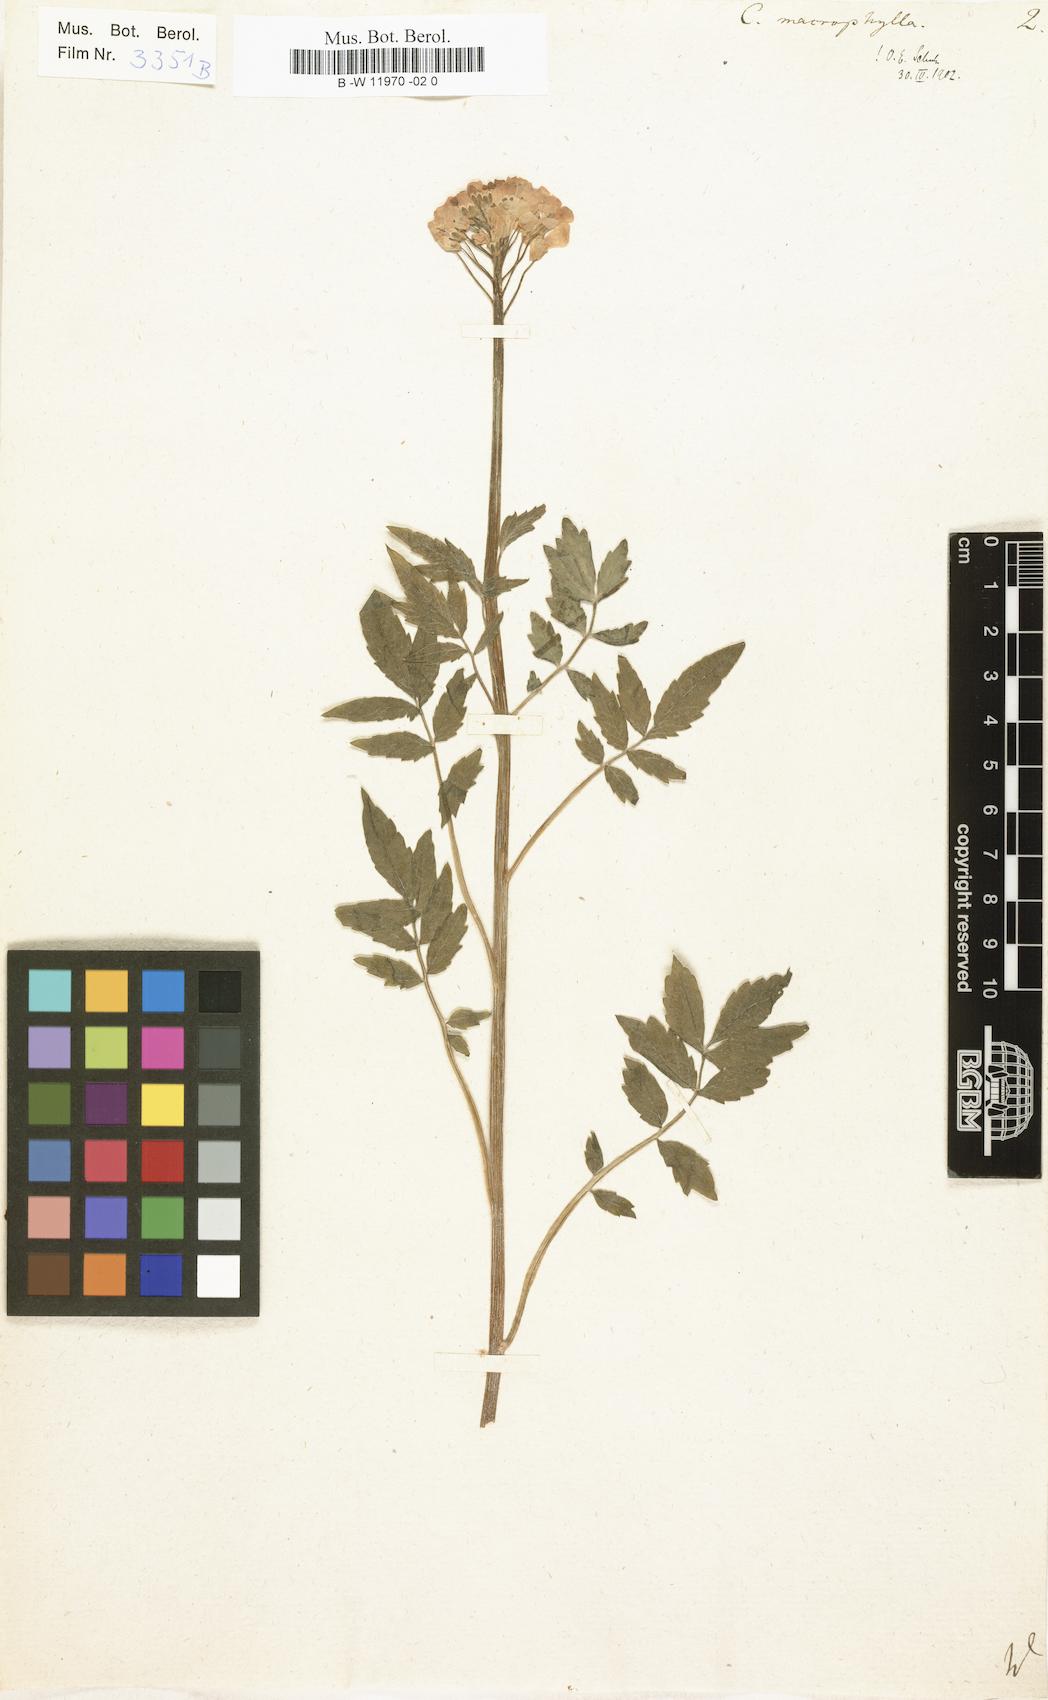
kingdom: Plantae
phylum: Tracheophyta
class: Magnoliopsida
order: Brassicales
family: Brassicaceae
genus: Cardamine
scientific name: Cardamine amara
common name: Large bitter-cress
